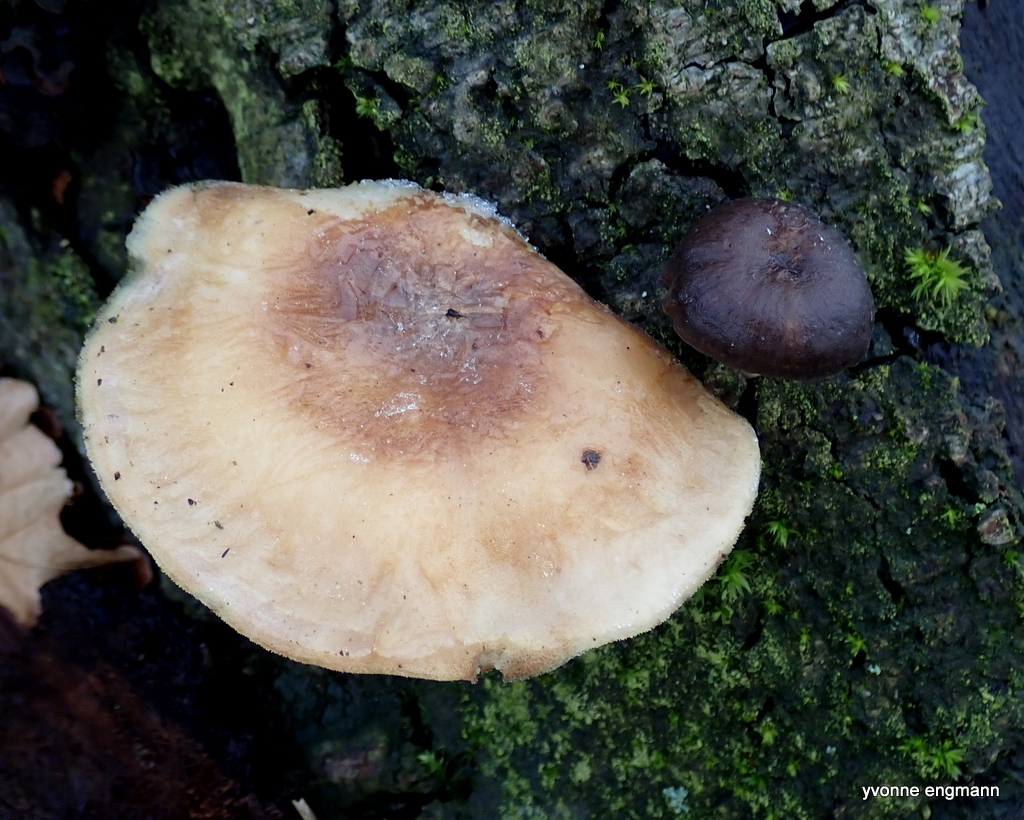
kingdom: Fungi
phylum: Basidiomycota
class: Agaricomycetes
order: Polyporales
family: Polyporaceae
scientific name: Polyporaceae
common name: poresvampfamilien
